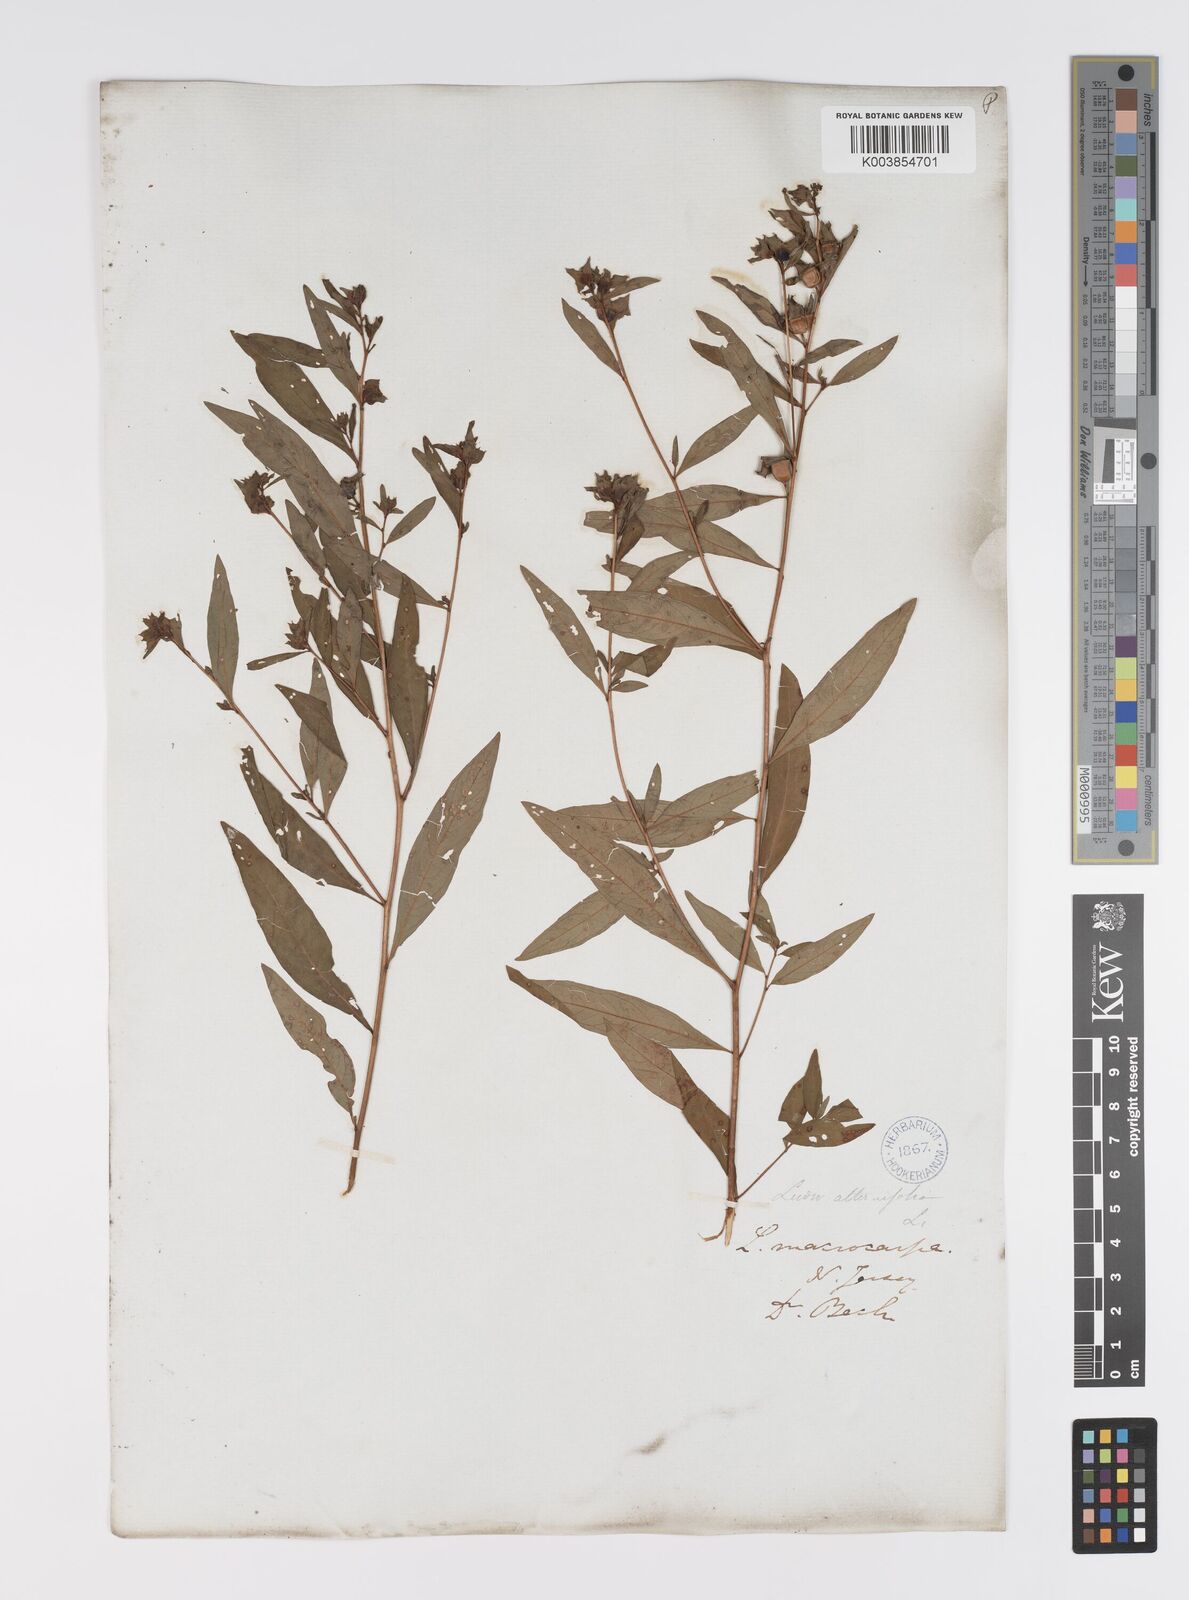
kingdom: Plantae
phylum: Tracheophyta
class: Magnoliopsida
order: Myrtales
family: Onagraceae
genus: Ludwigia
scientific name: Ludwigia alternifolia
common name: Rattlebox
